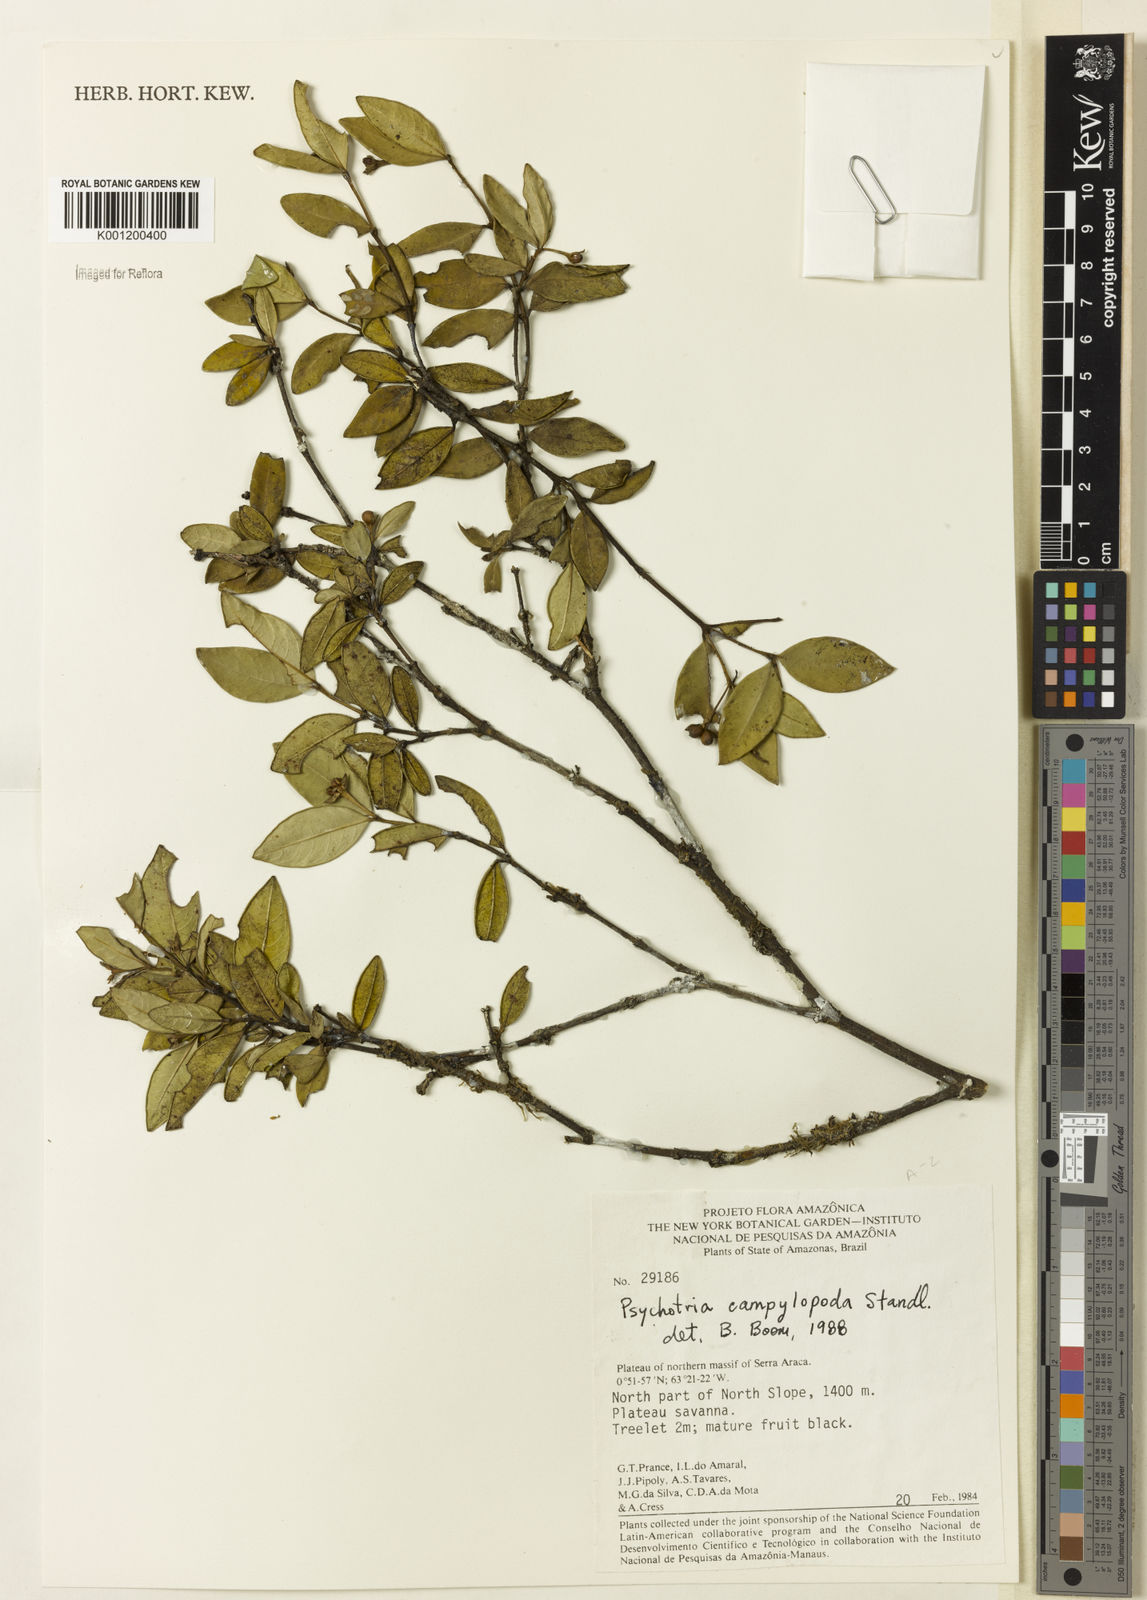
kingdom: Plantae
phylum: Tracheophyta
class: Magnoliopsida
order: Gentianales
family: Rubiaceae
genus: Palicourea
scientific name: Palicourea campylopoda
